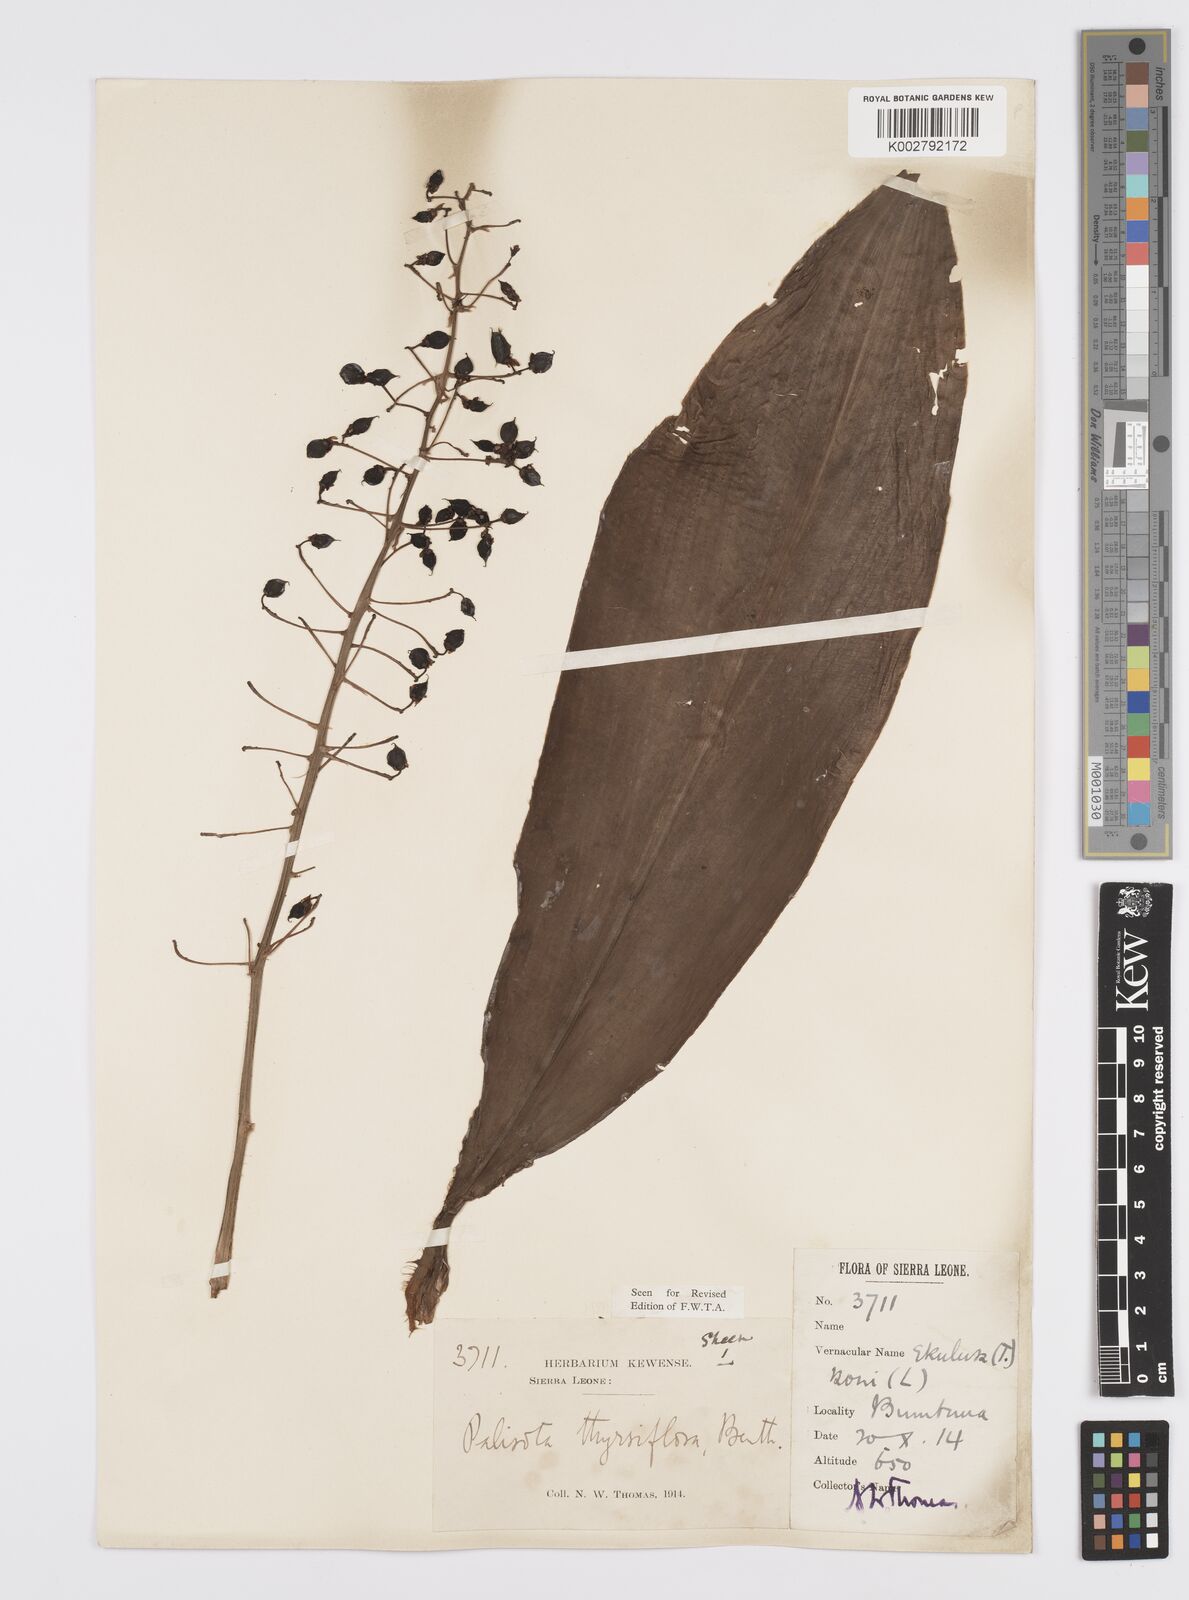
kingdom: Plantae
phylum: Tracheophyta
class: Liliopsida
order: Commelinales
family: Commelinaceae
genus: Palisota
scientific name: Palisota hirsuta
